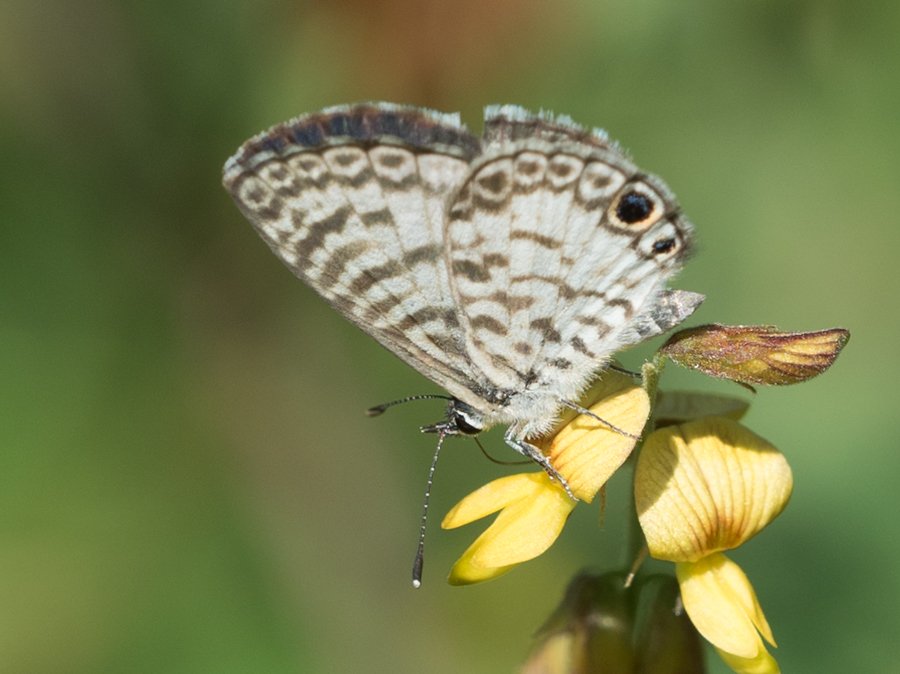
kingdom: Animalia
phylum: Arthropoda
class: Insecta
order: Lepidoptera
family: Lycaenidae
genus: Leptotes
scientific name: Leptotes cassius
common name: Cassius Blue
